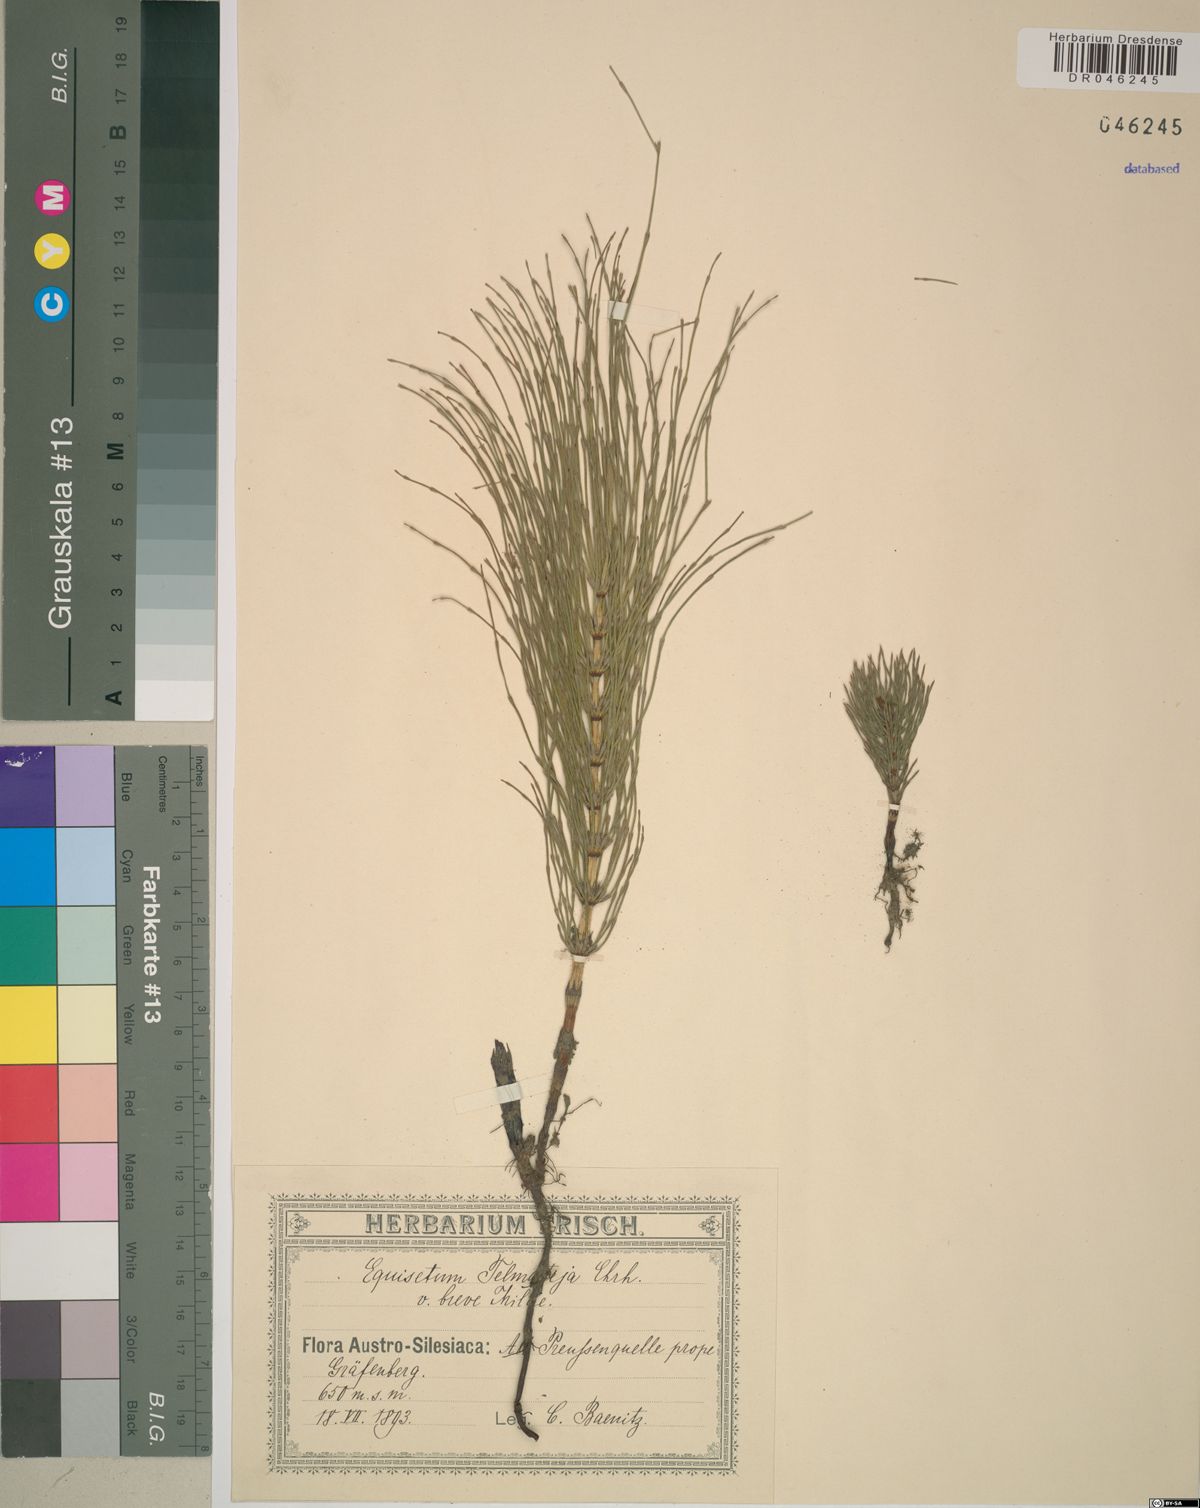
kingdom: Plantae
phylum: Tracheophyta
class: Polypodiopsida
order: Equisetales
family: Equisetaceae
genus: Equisetum
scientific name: Equisetum telmateia
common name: Great horsetail
